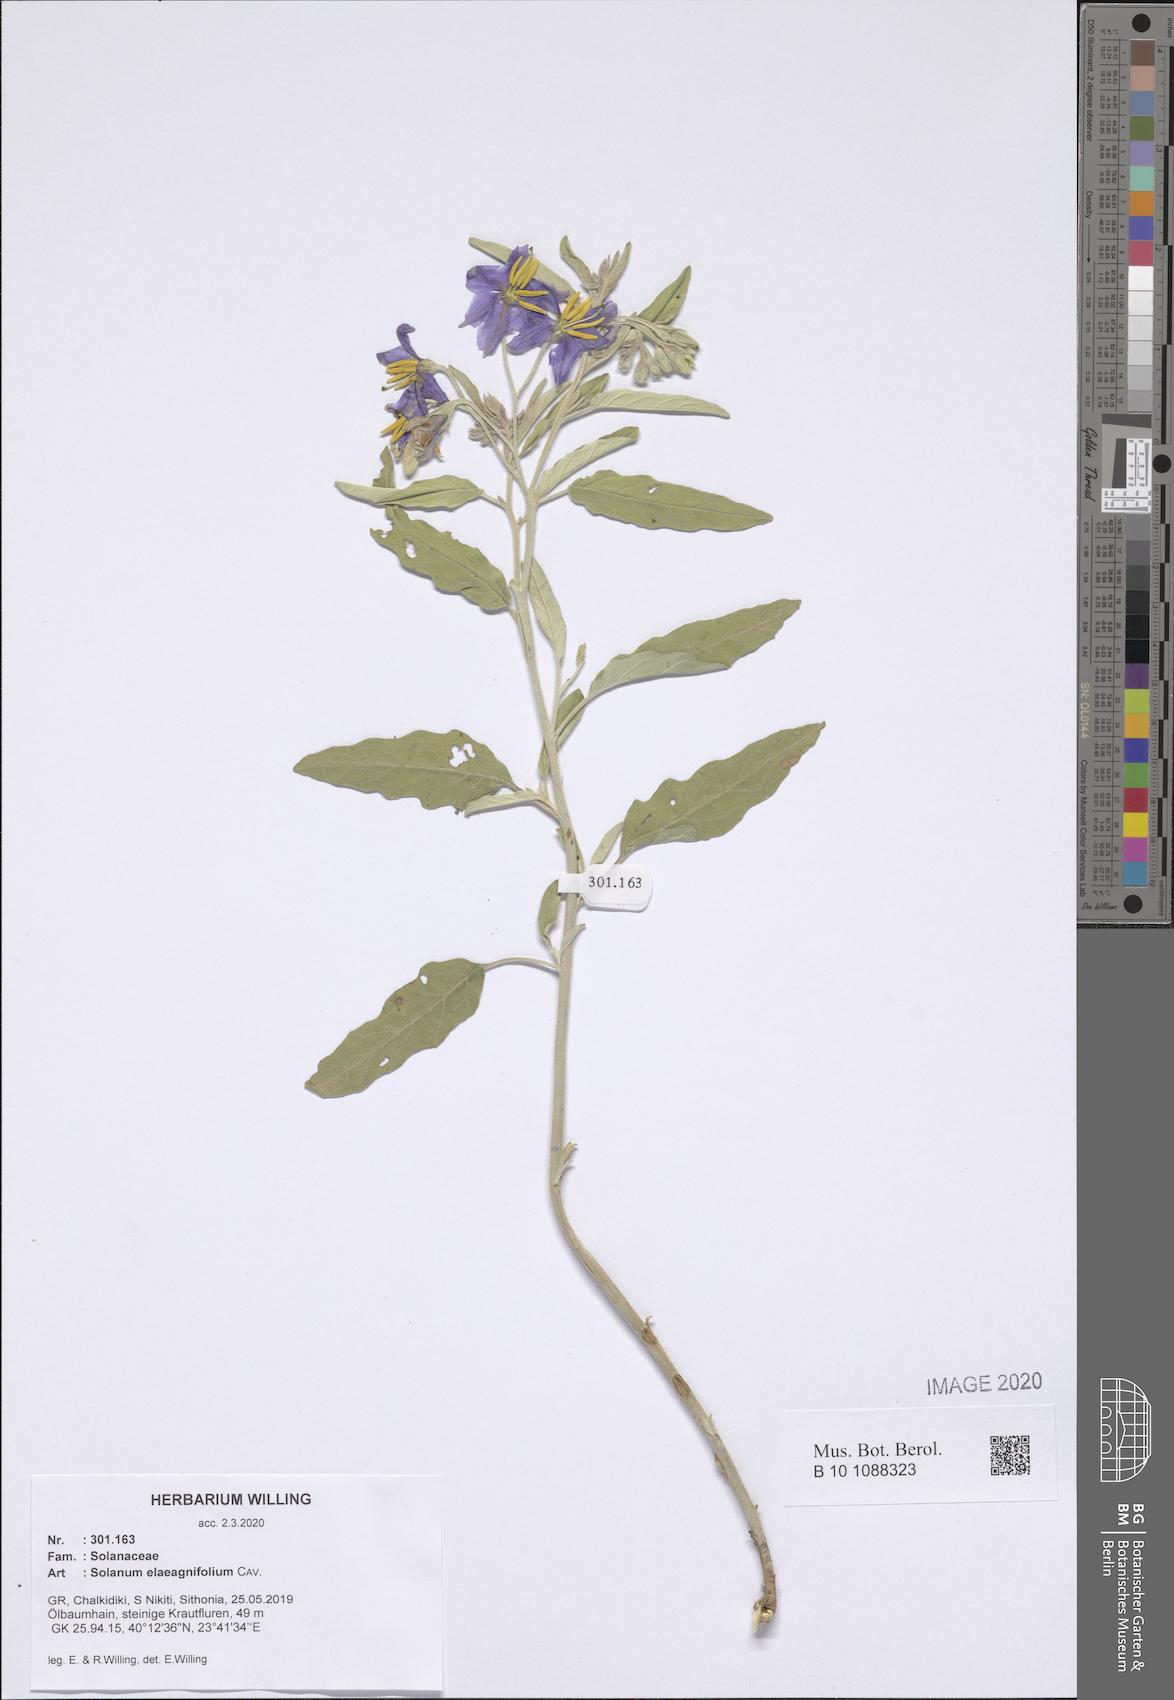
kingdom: Plantae
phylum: Tracheophyta
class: Magnoliopsida
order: Solanales
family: Solanaceae
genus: Solanum
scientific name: Solanum elaeagnifolium
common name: Silverleaf nightshade
